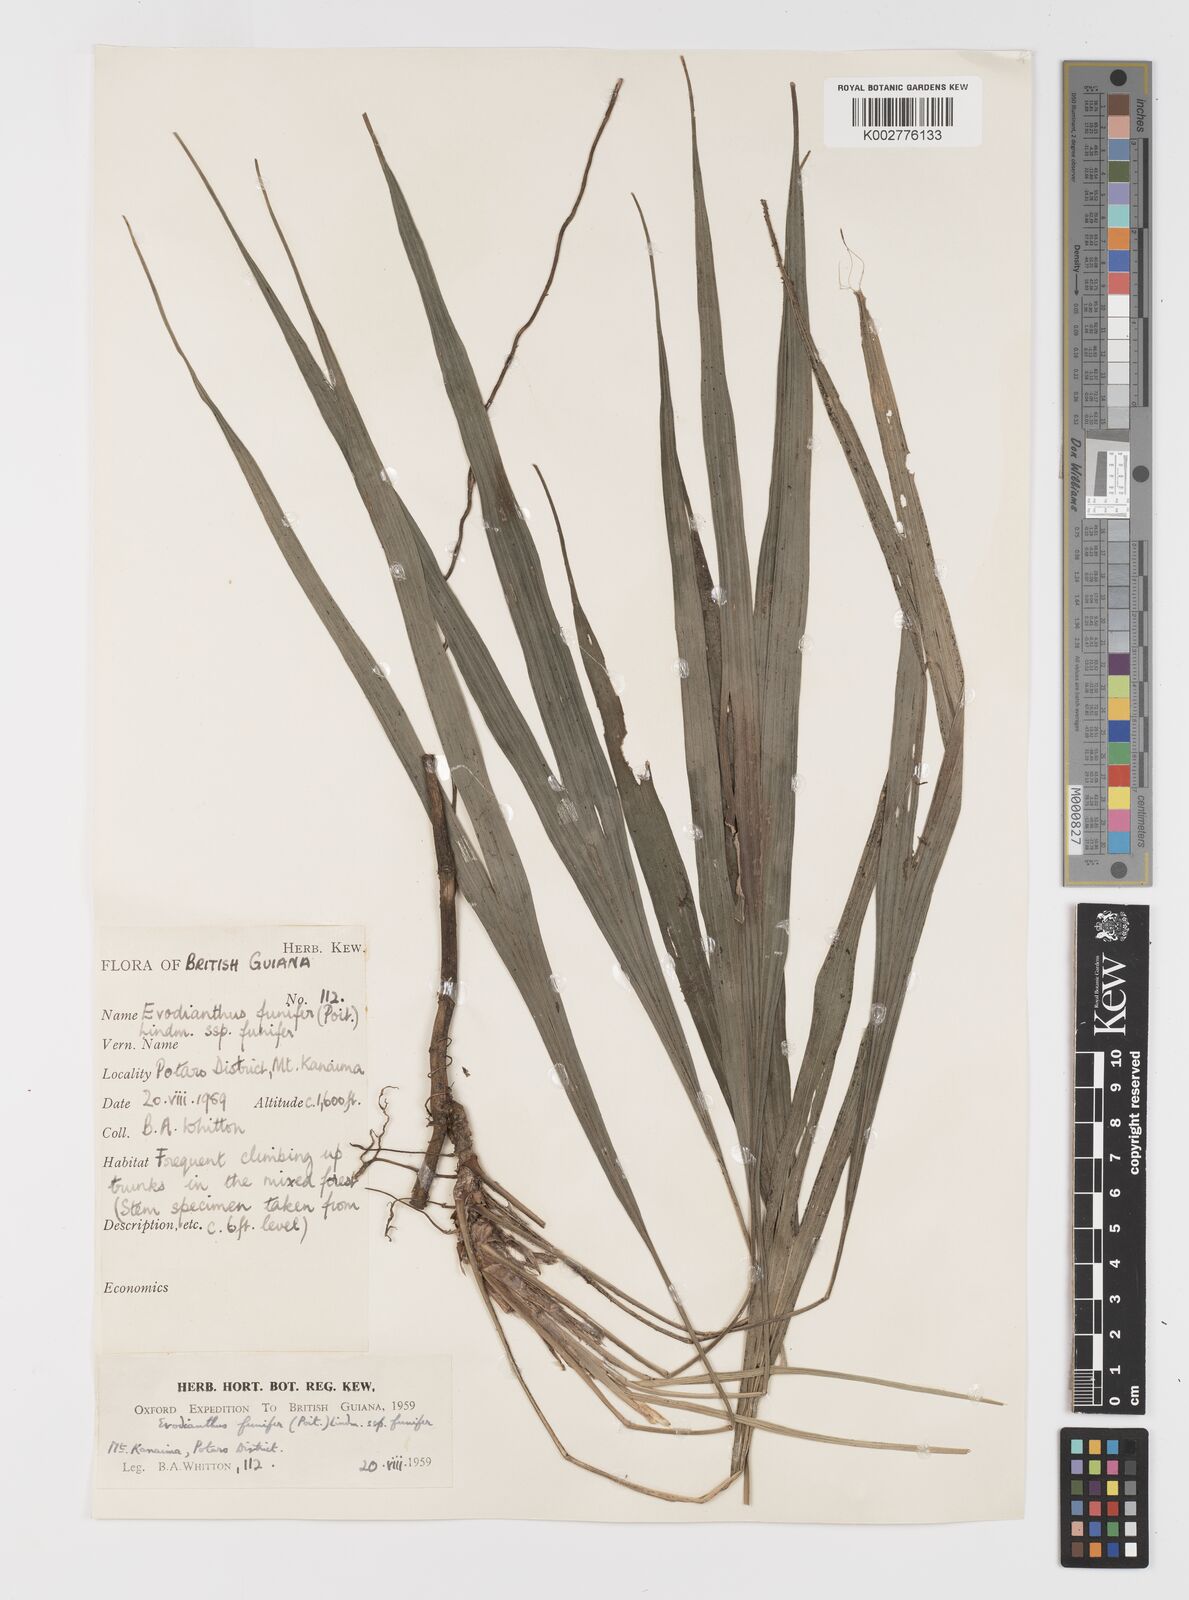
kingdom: Plantae
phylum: Tracheophyta
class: Liliopsida
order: Pandanales
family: Cyclanthaceae
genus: Evodianthus
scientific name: Evodianthus funifer
